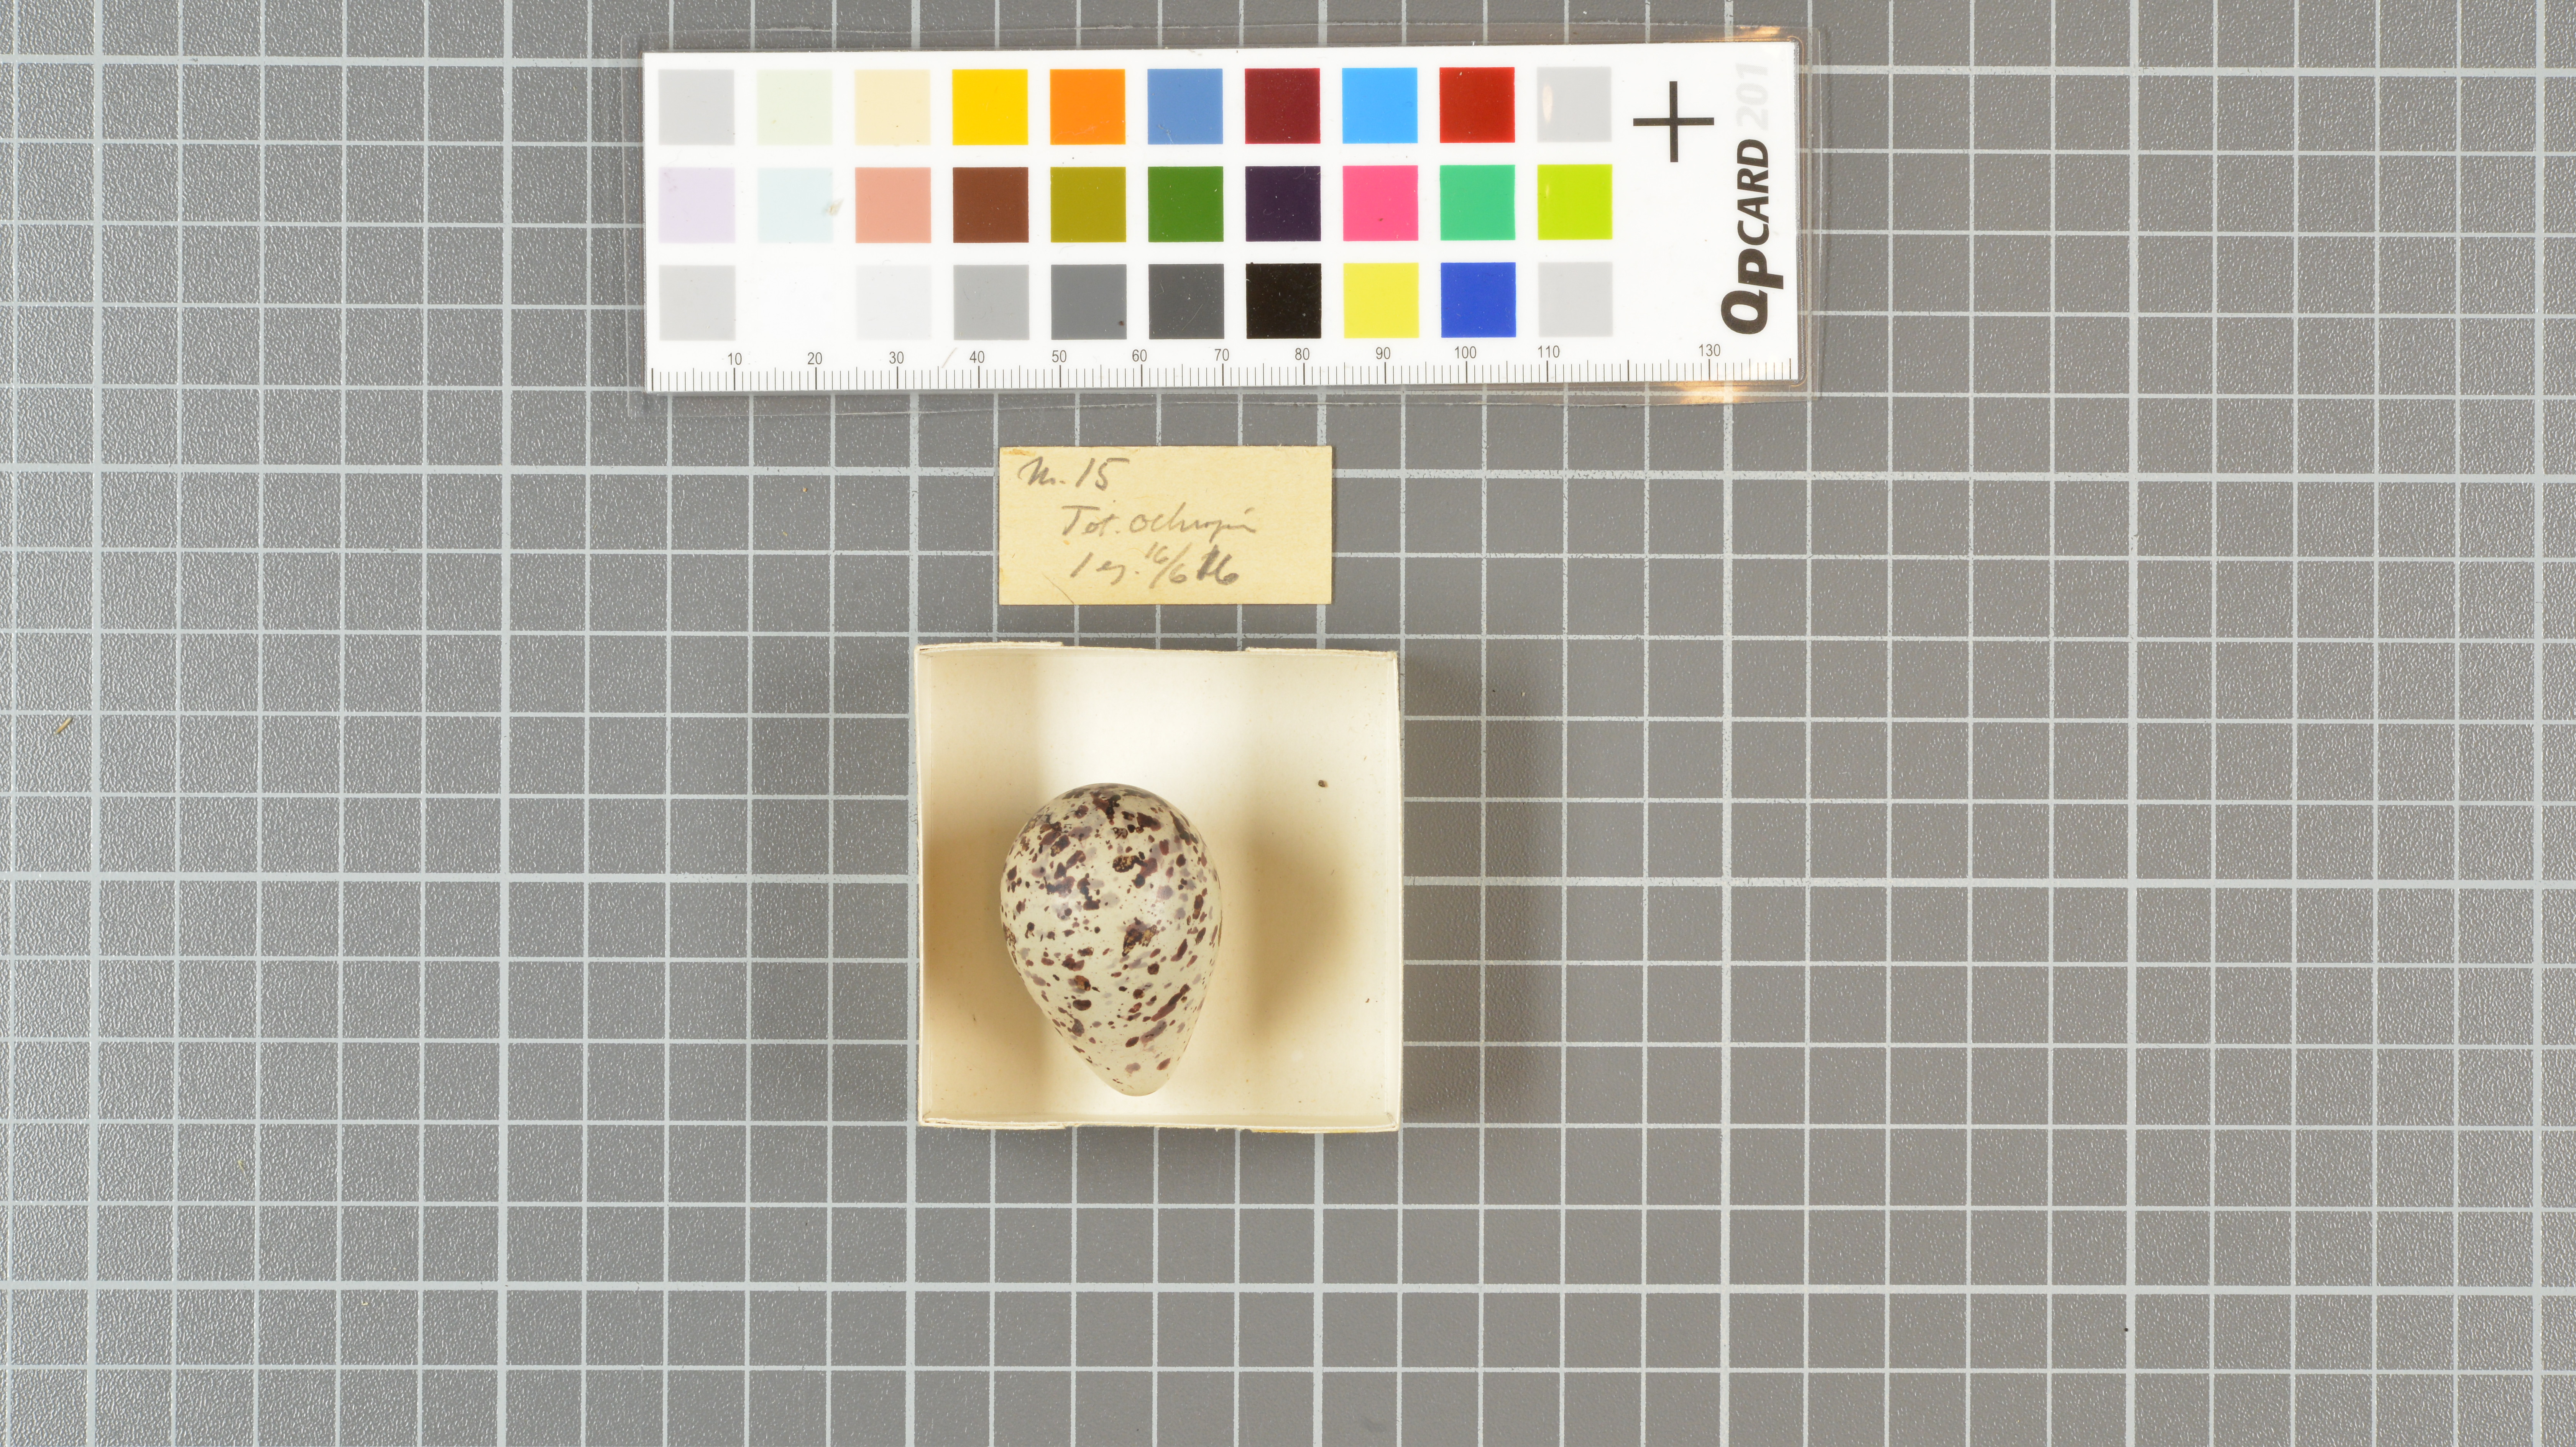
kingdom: Animalia
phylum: Chordata
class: Aves
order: Charadriiformes
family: Scolopacidae
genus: Tringa
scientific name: Tringa ochropus
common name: Green sandpiper
